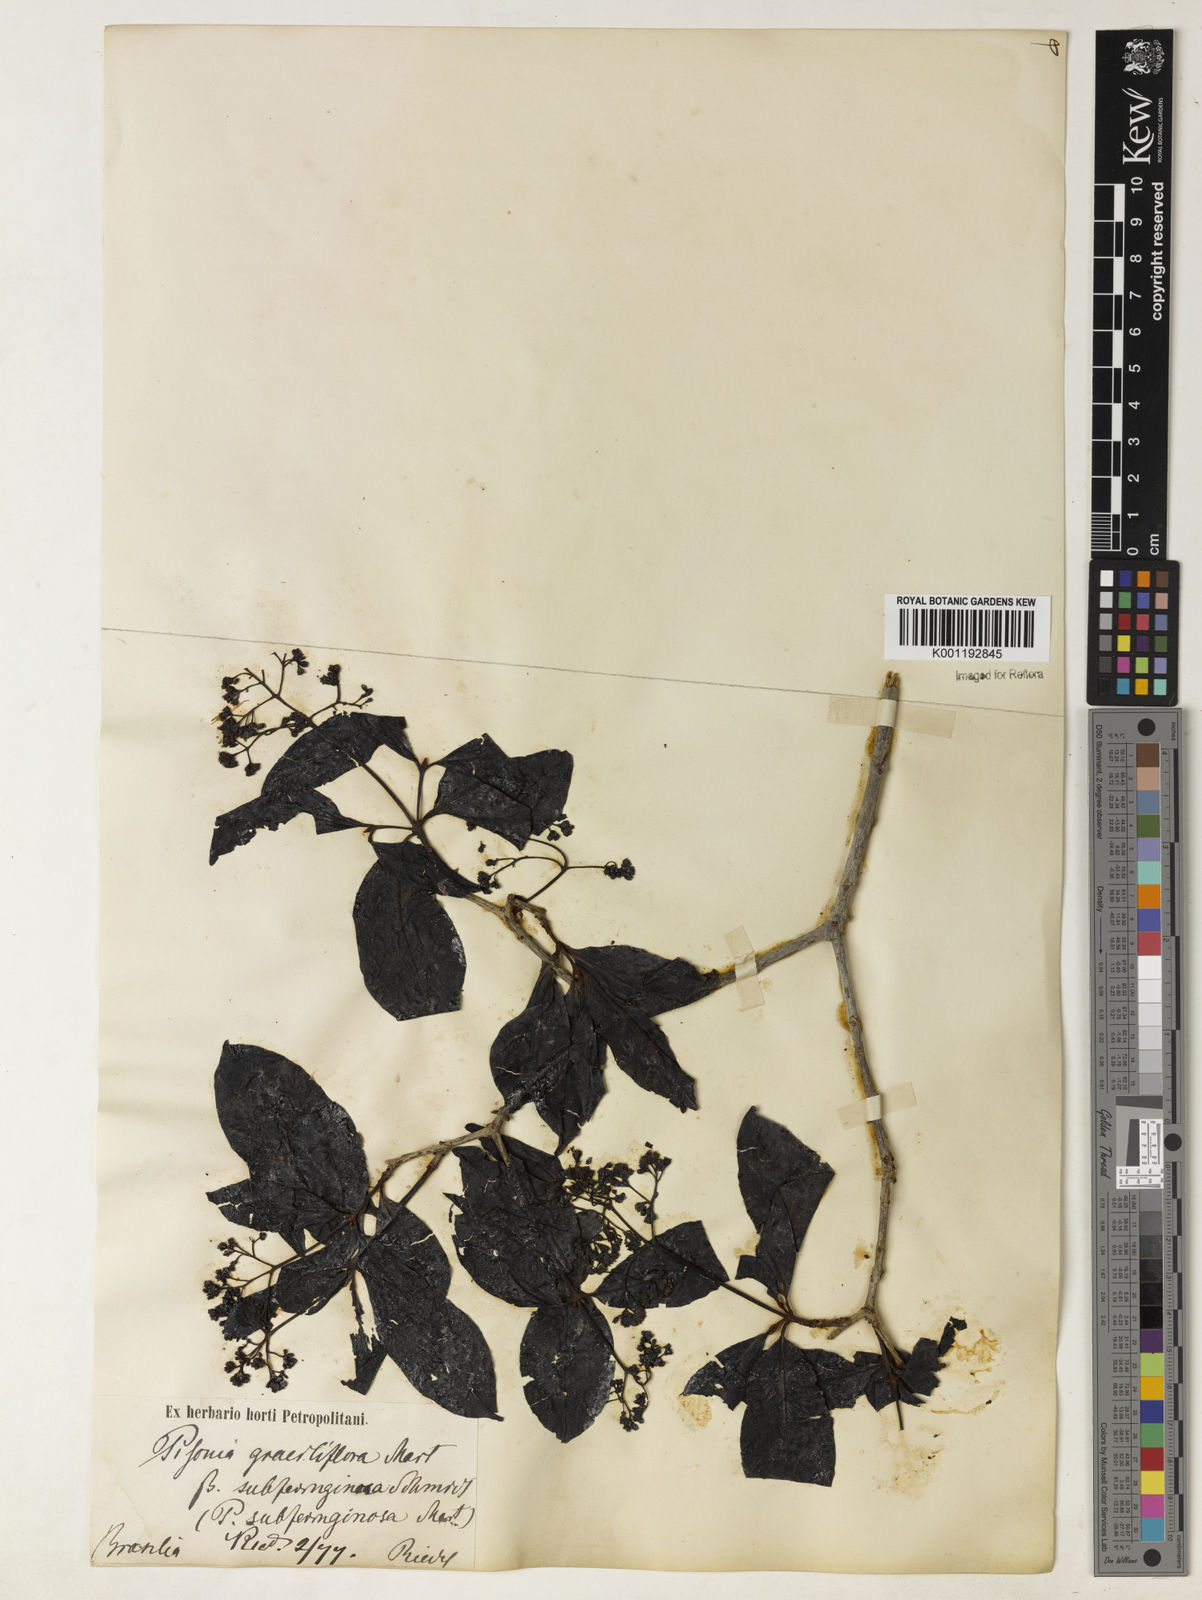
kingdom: Plantae
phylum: Tracheophyta
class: Magnoliopsida
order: Caryophyllales
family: Nyctaginaceae
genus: Guapira
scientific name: Guapira graciliflora
